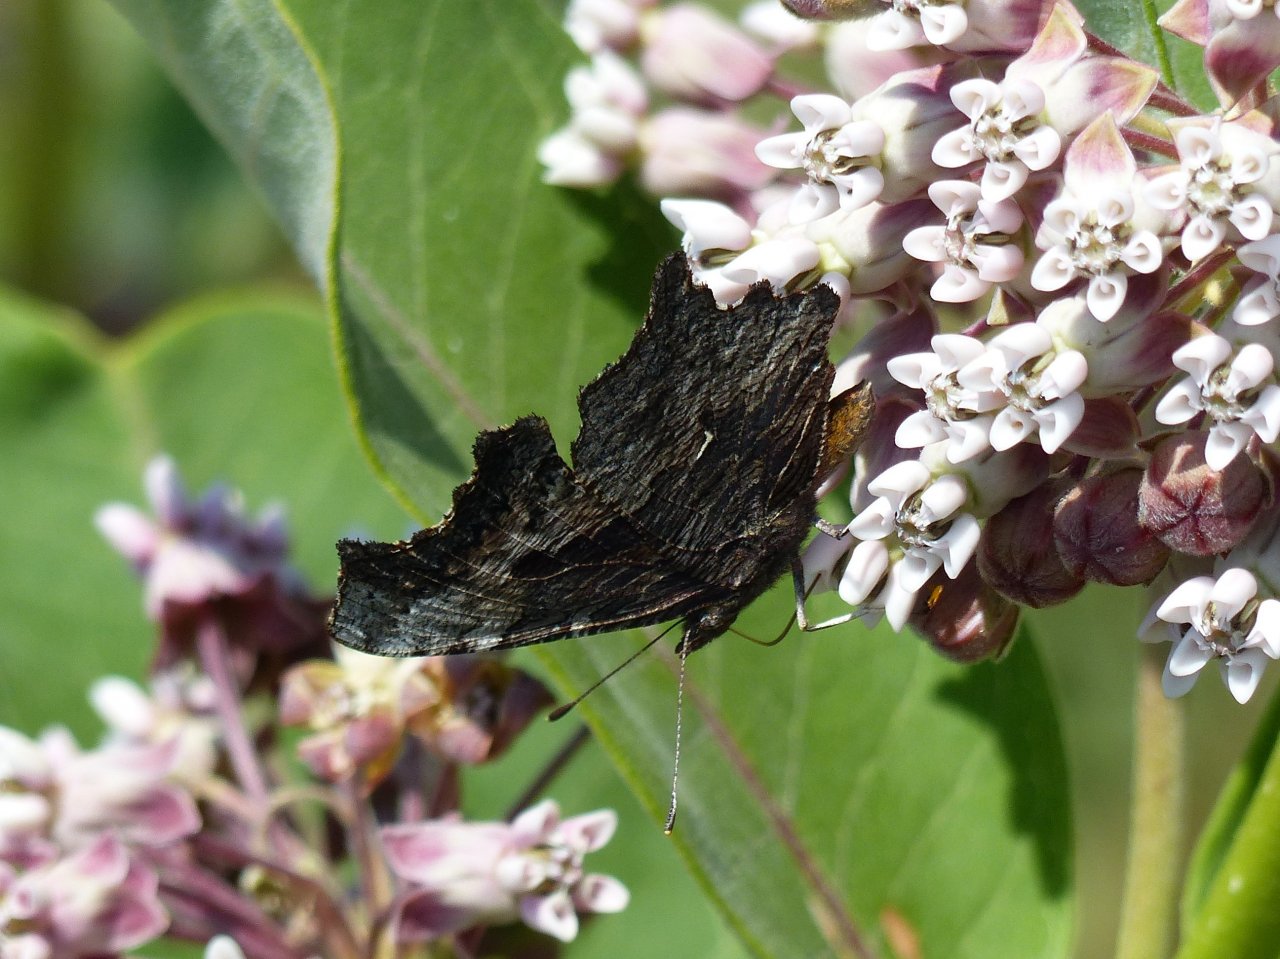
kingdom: Animalia
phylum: Arthropoda
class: Insecta
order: Lepidoptera
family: Nymphalidae
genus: Polygonia
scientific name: Polygonia progne
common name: Gray Comma
